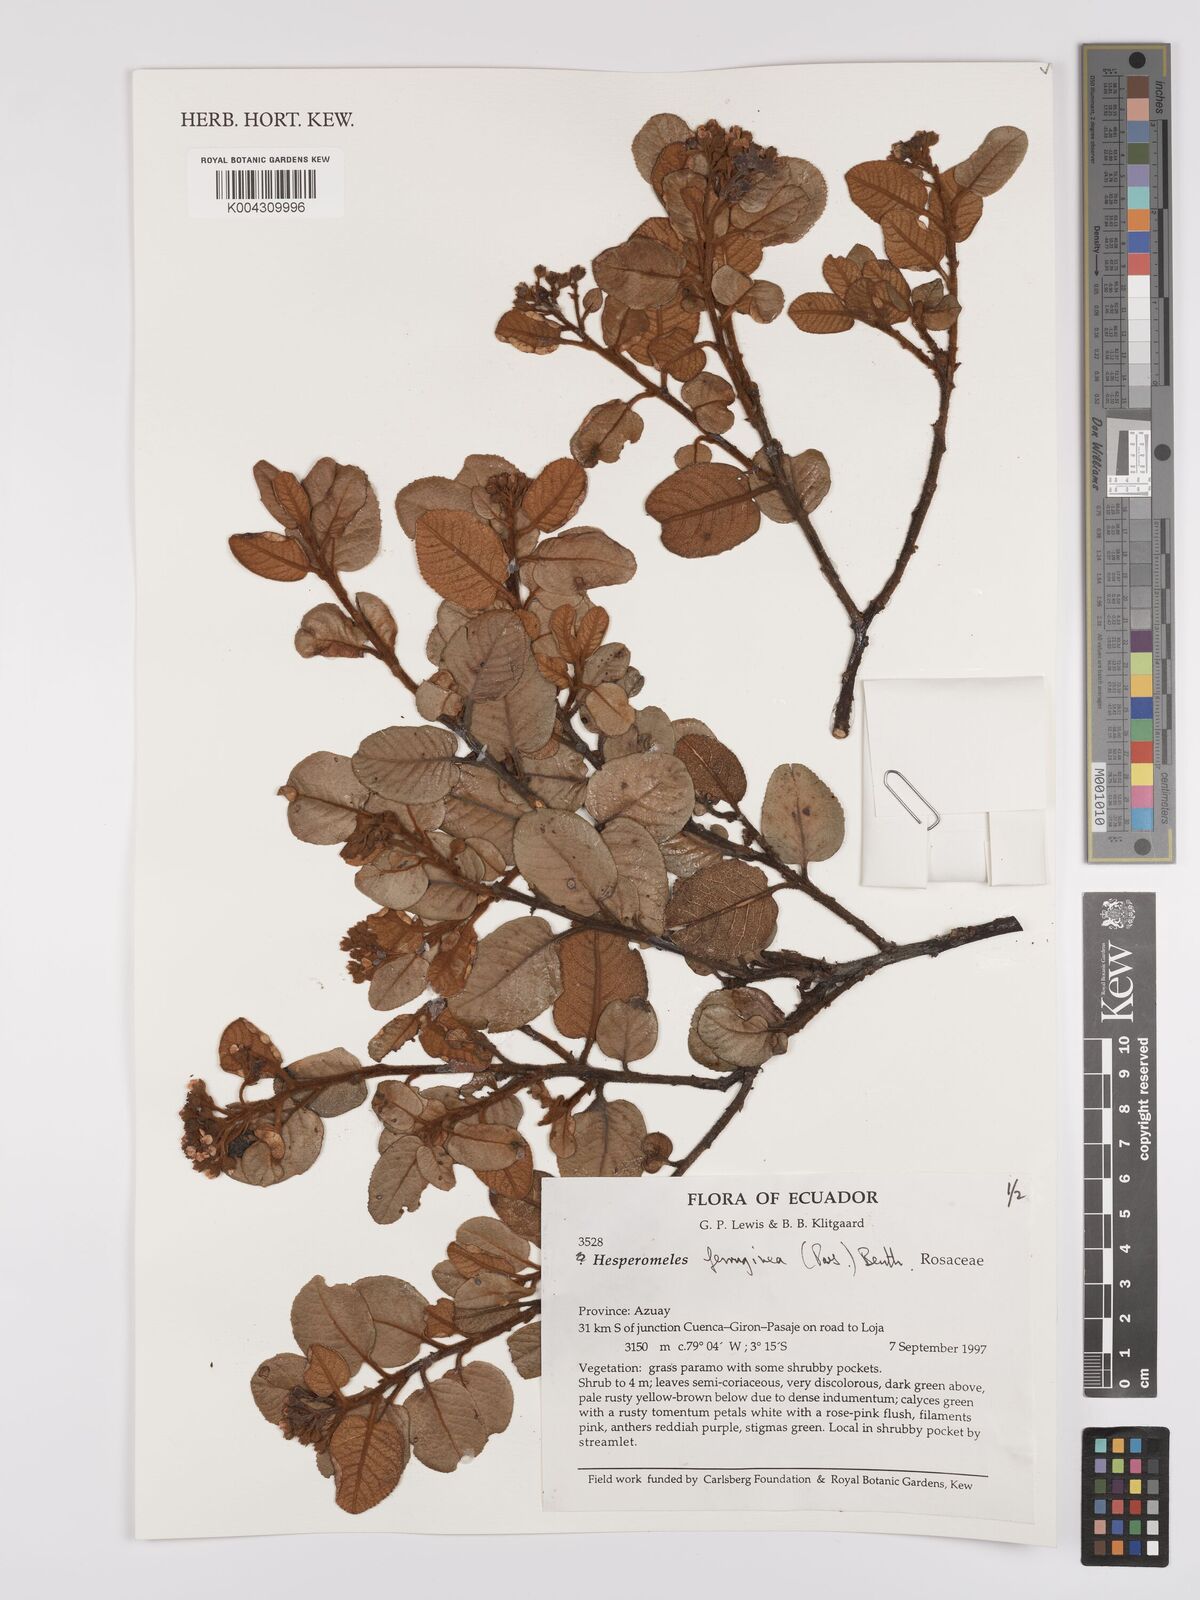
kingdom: Plantae
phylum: Tracheophyta
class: Magnoliopsida
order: Rosales
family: Rosaceae
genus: Hesperomeles
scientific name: Hesperomeles ferruginea
